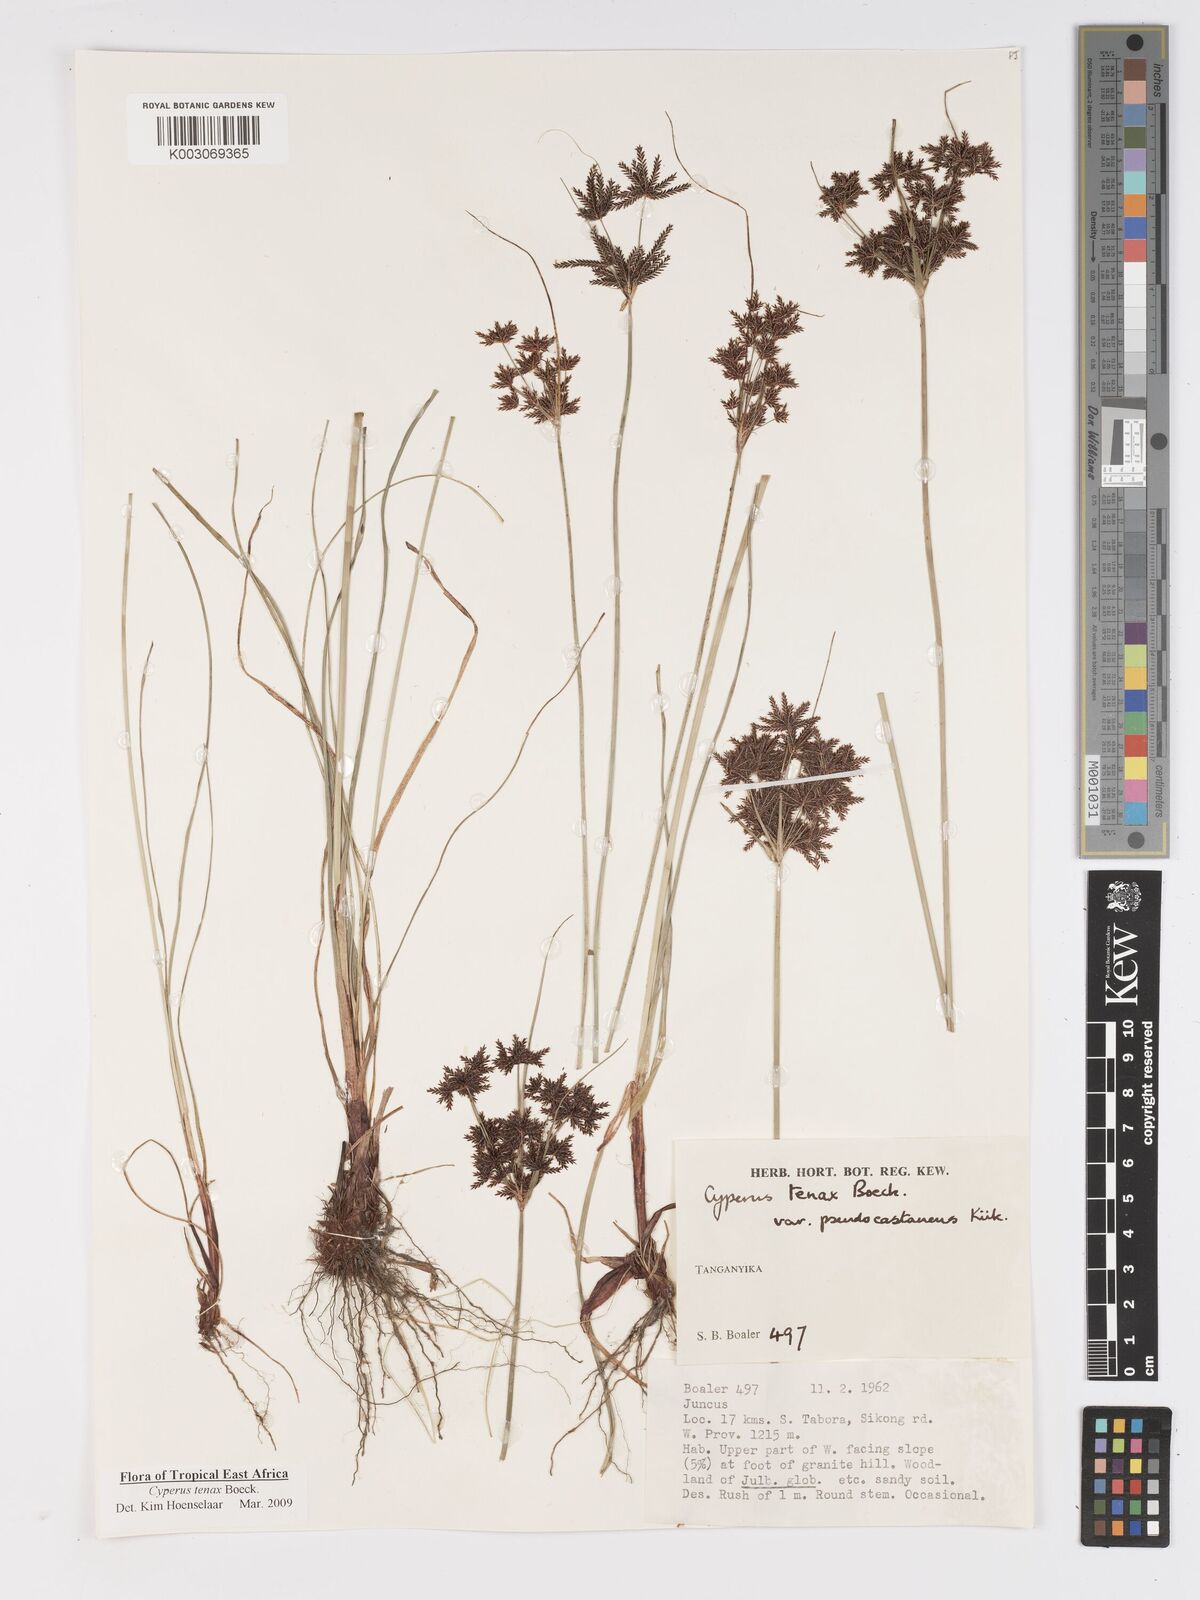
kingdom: Plantae
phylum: Tracheophyta
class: Liliopsida
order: Poales
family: Cyperaceae
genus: Cyperus
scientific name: Cyperus tenax
